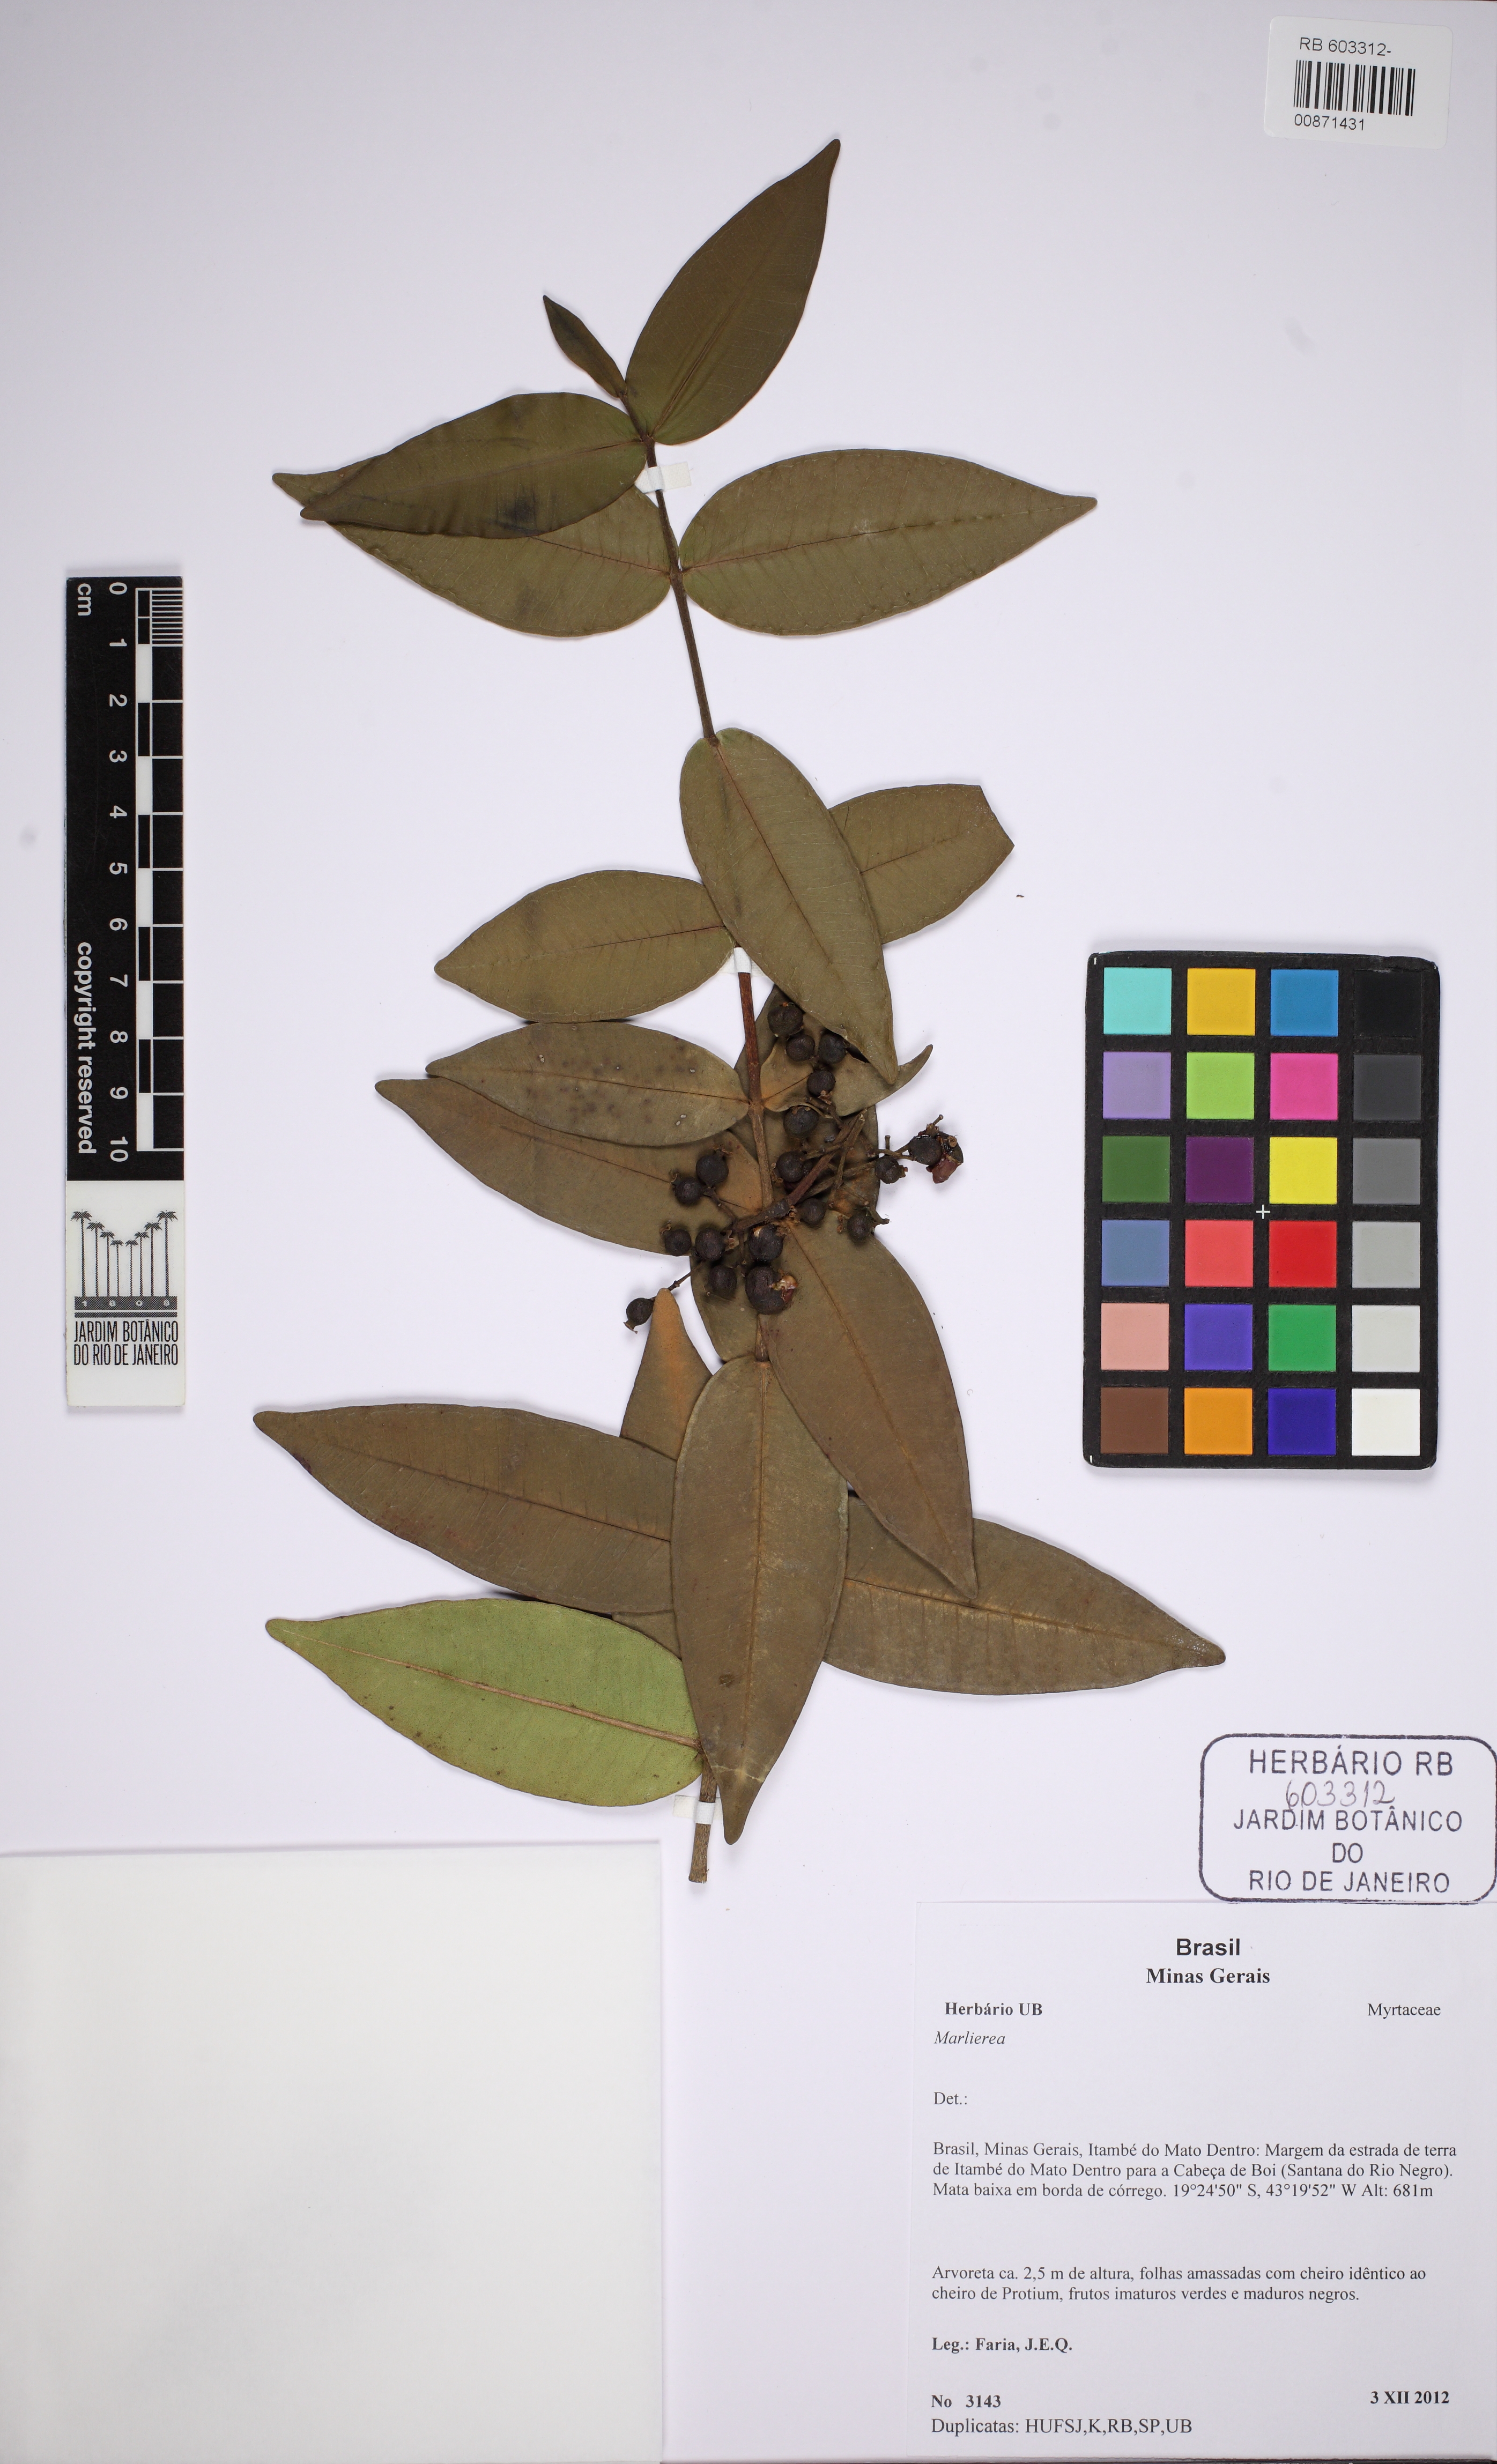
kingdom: Plantae
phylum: Tracheophyta
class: Magnoliopsida
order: Myrtales
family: Myrtaceae
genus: Marlierea
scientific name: Marlierea clausseniana
